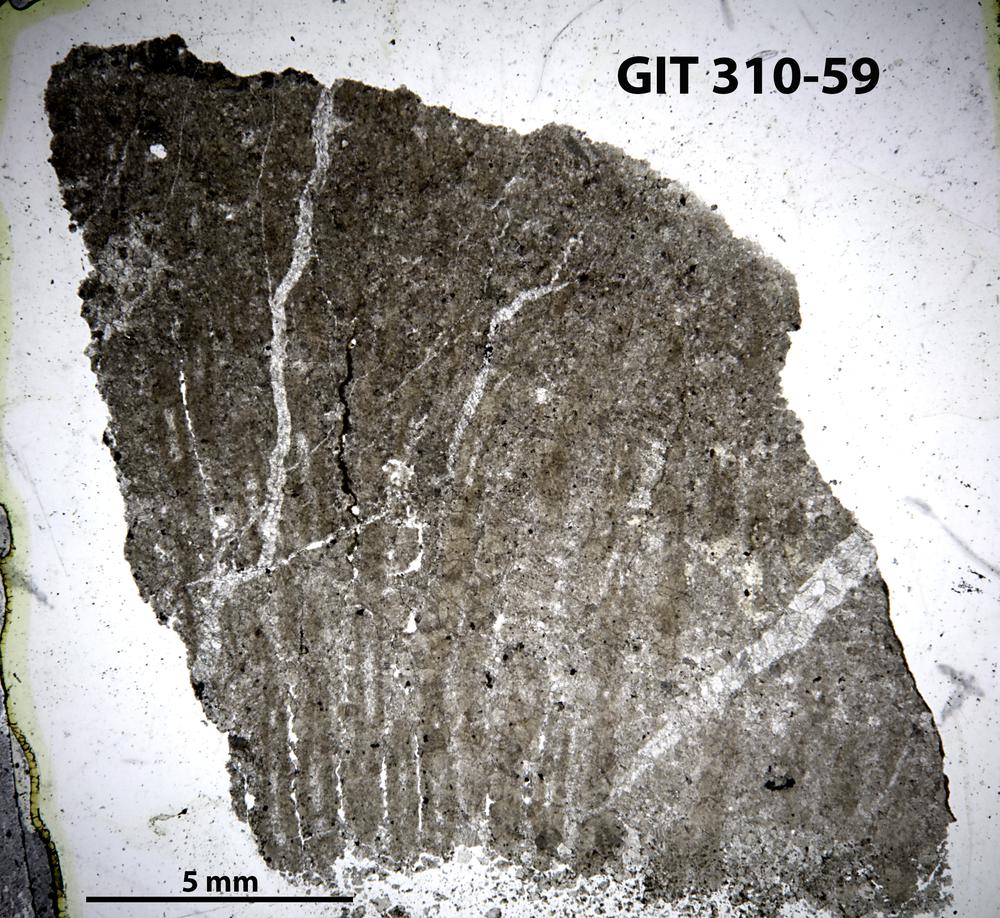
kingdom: Animalia
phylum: Porifera
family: Labechiidae
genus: Labechiella
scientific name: Labechiella
